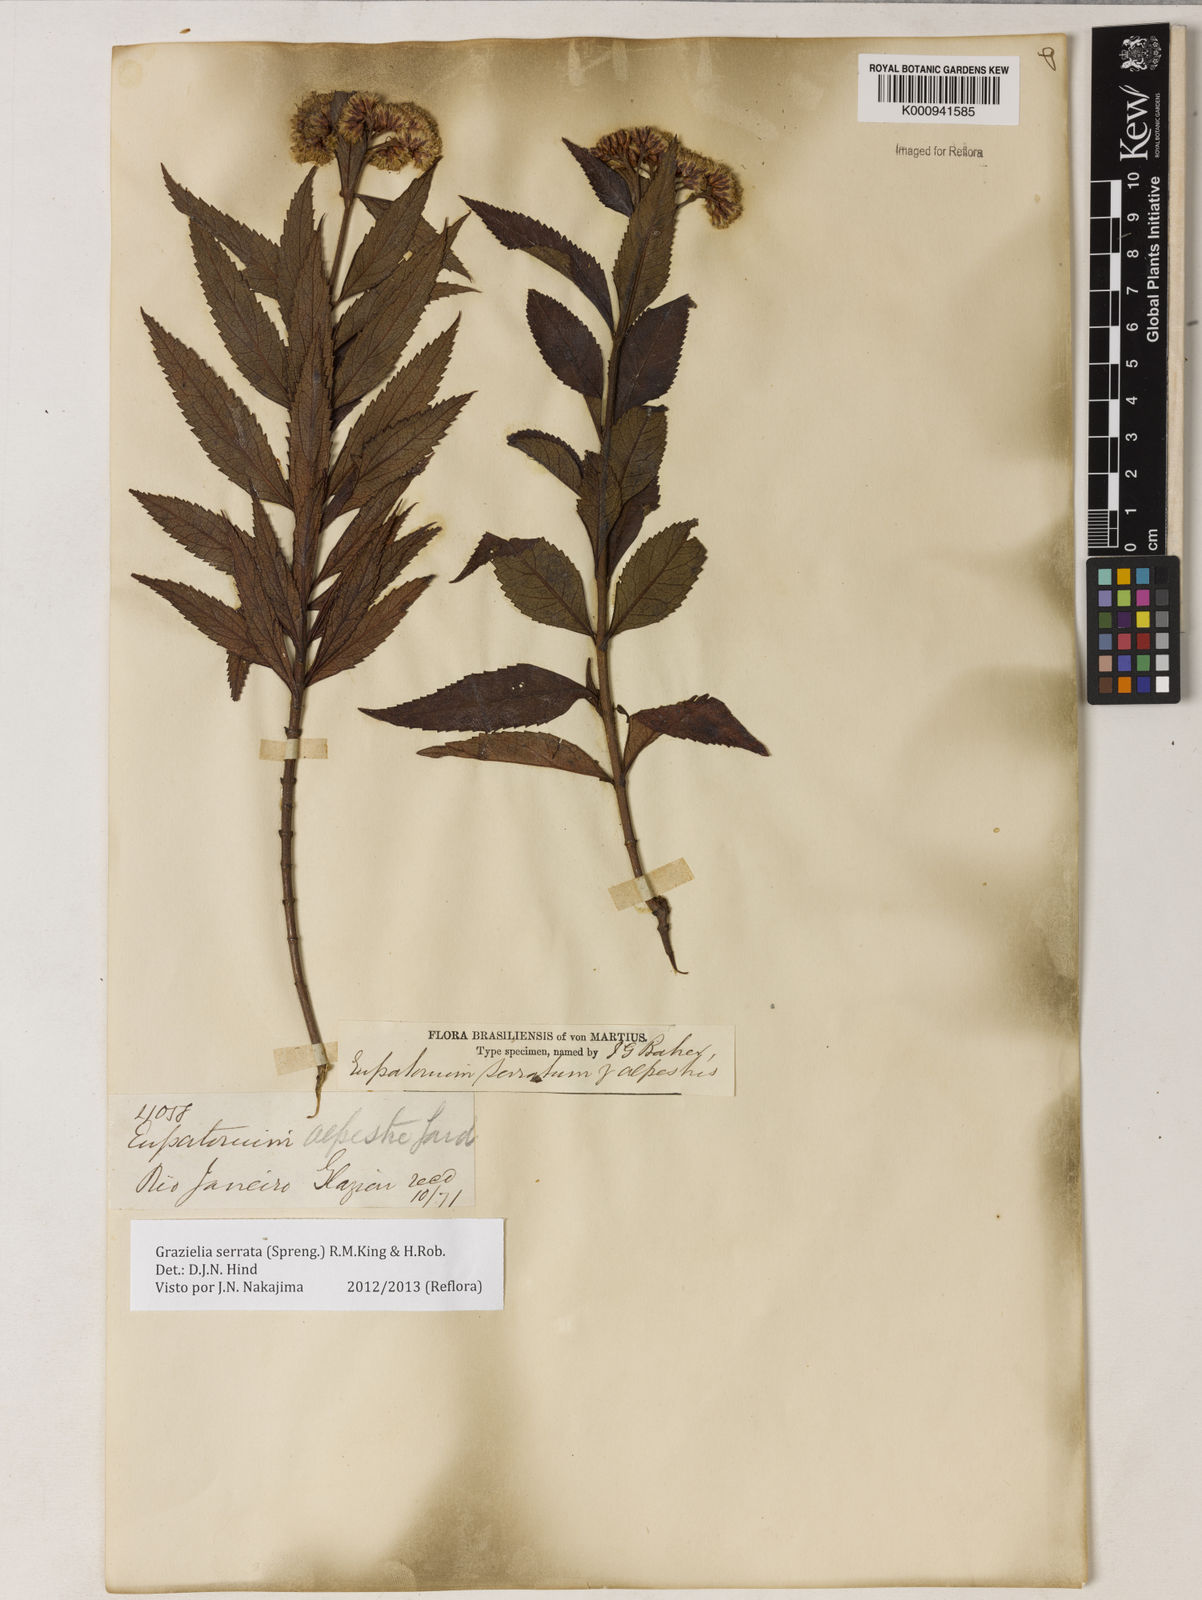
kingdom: Plantae
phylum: Tracheophyta
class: Magnoliopsida
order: Asterales
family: Asteraceae
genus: Grazielia
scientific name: Grazielia serrata
